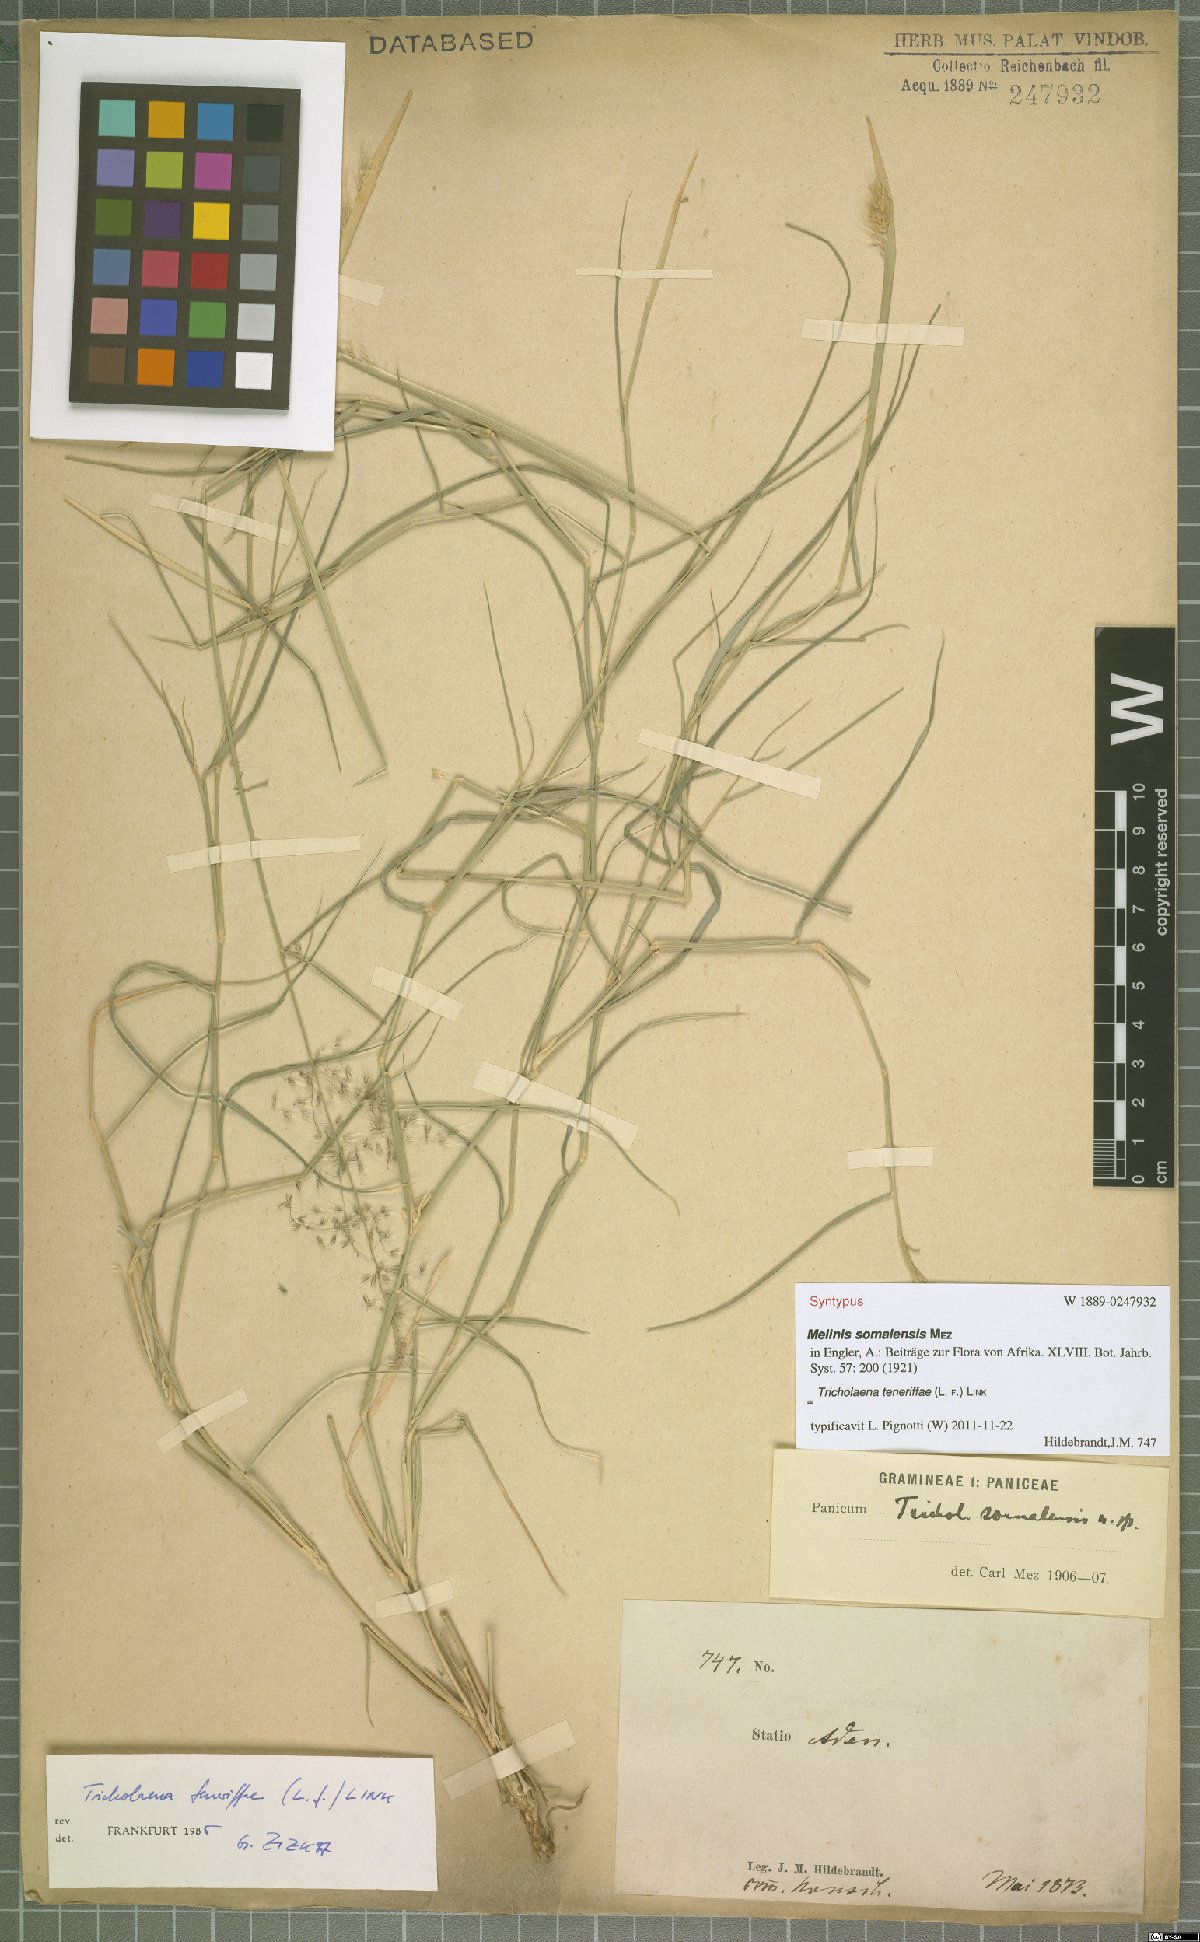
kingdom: Plantae
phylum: Tracheophyta
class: Liliopsida
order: Poales
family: Poaceae
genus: Tricholaena
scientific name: Tricholaena teneriffae
